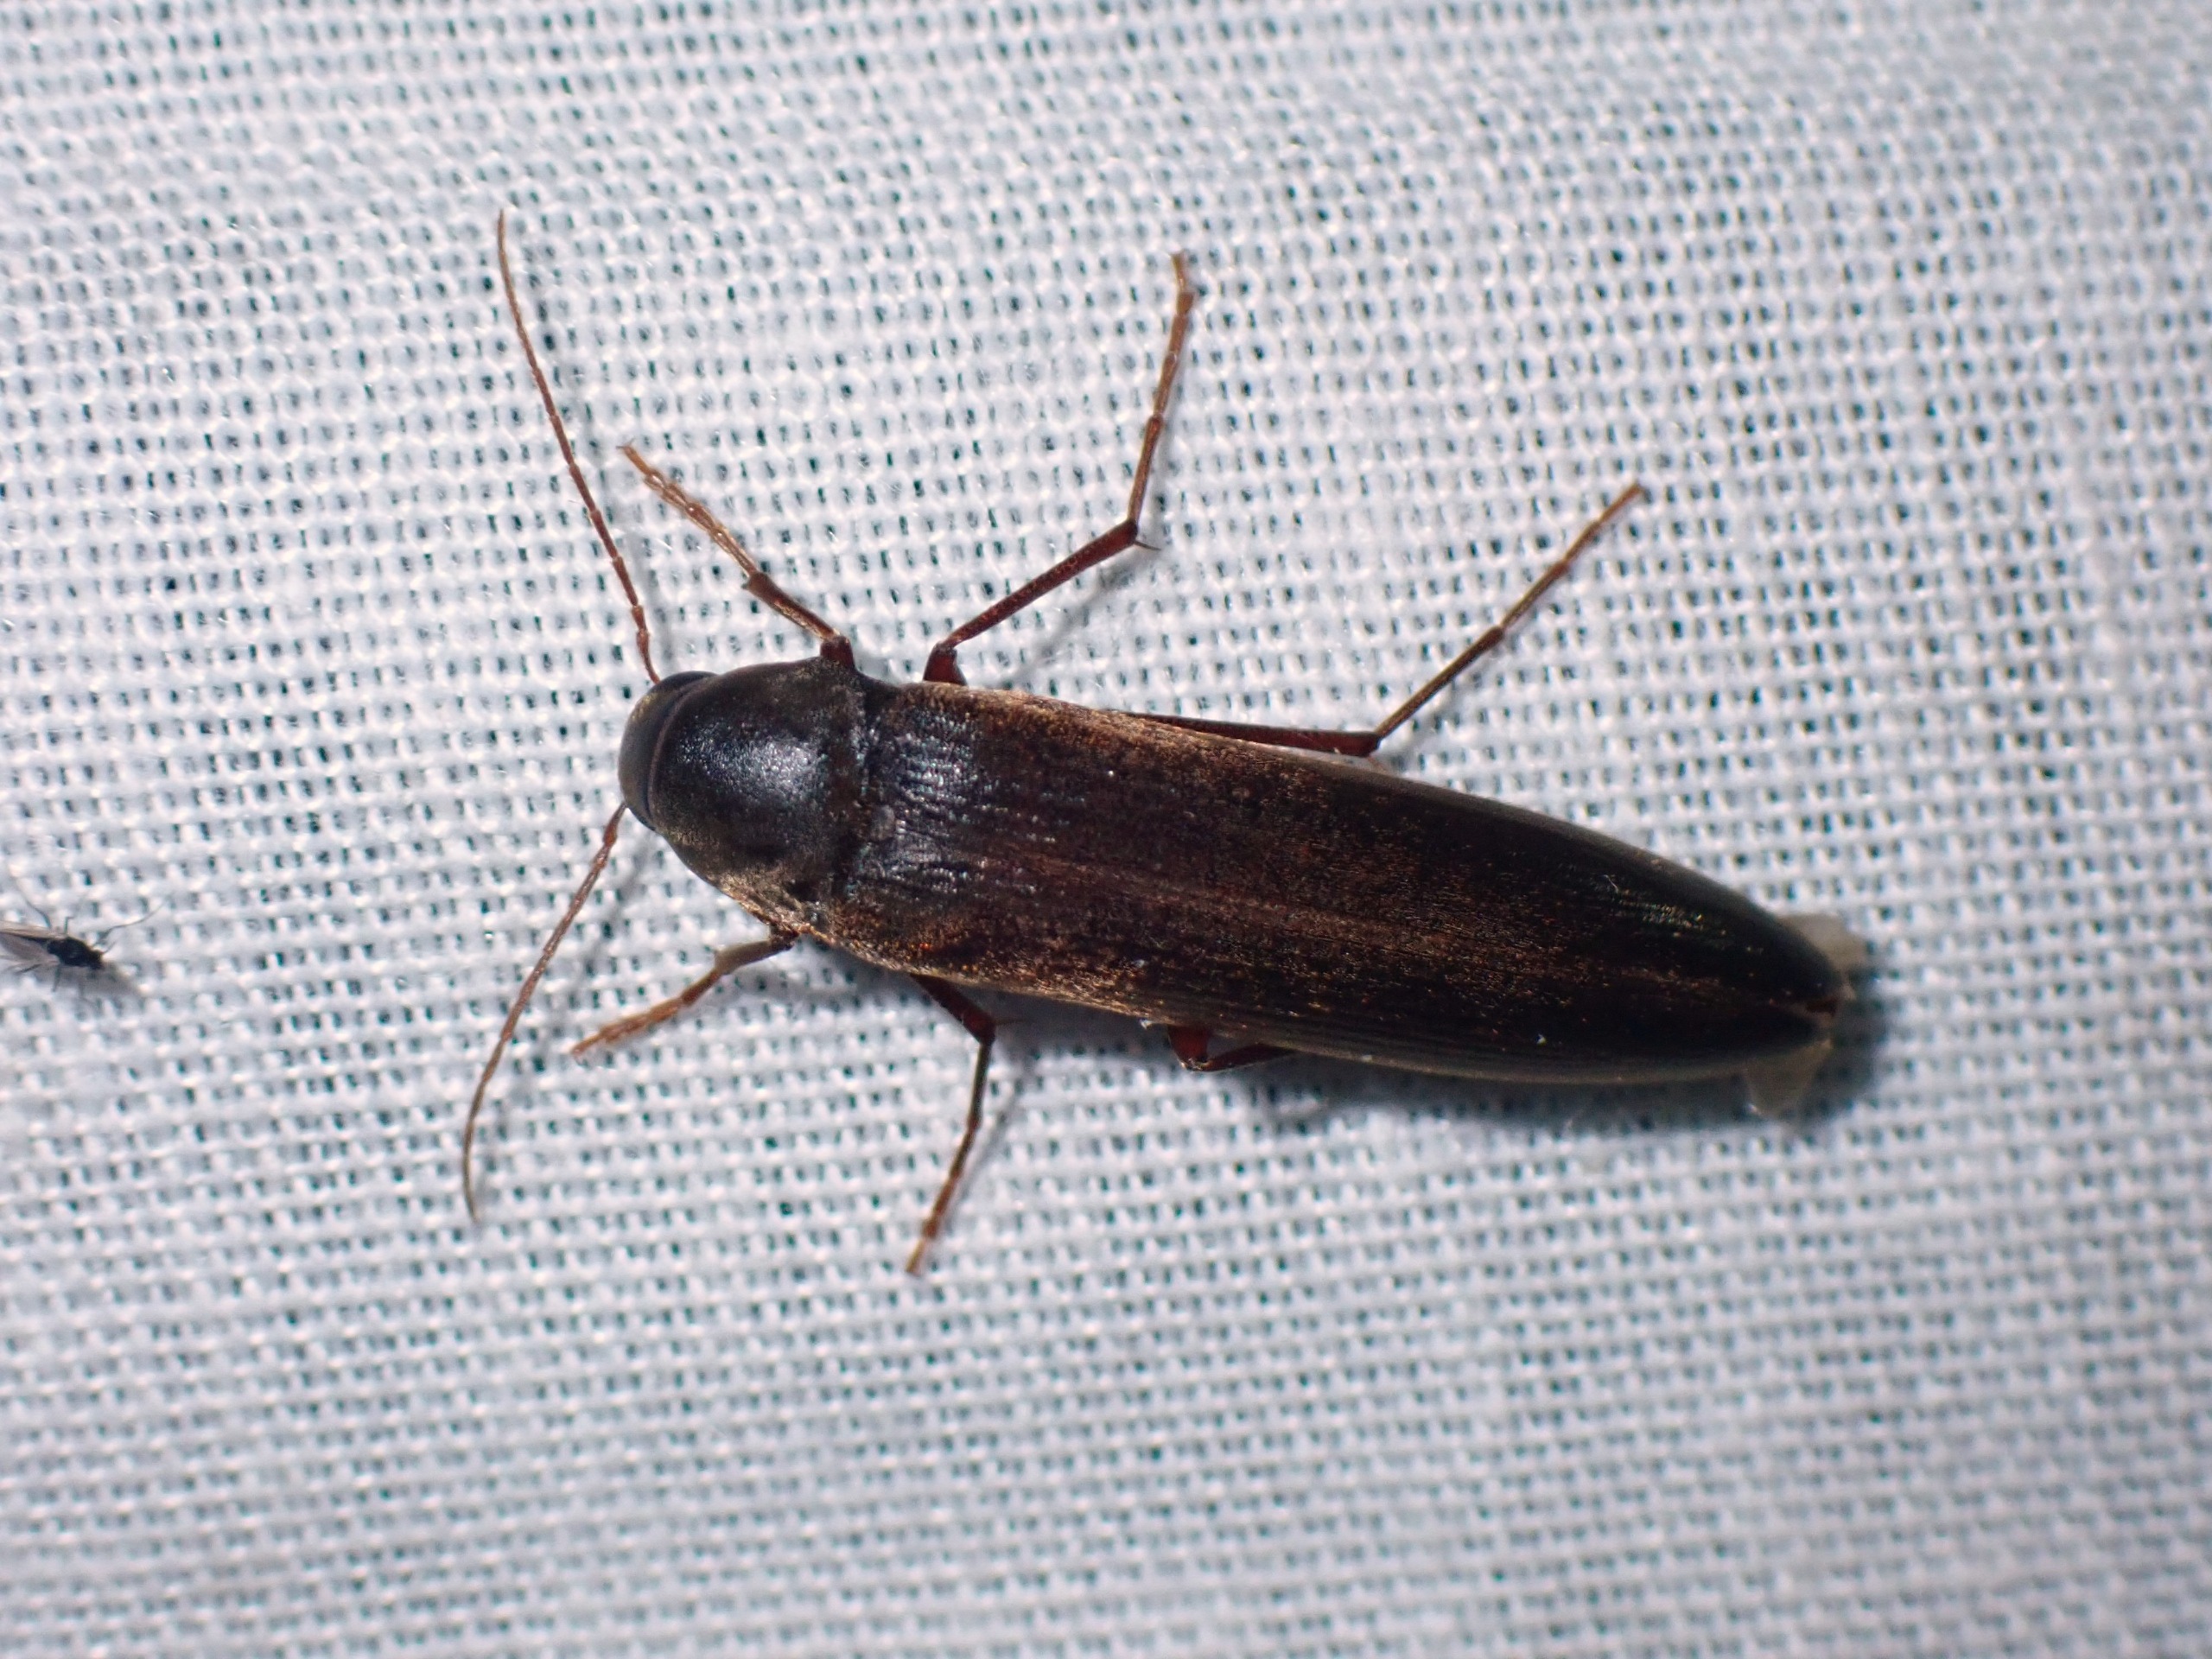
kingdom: Animalia
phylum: Arthropoda
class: Insecta
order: Coleoptera
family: Melandryidae
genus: Serropalpus
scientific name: Serropalpus barbatus
